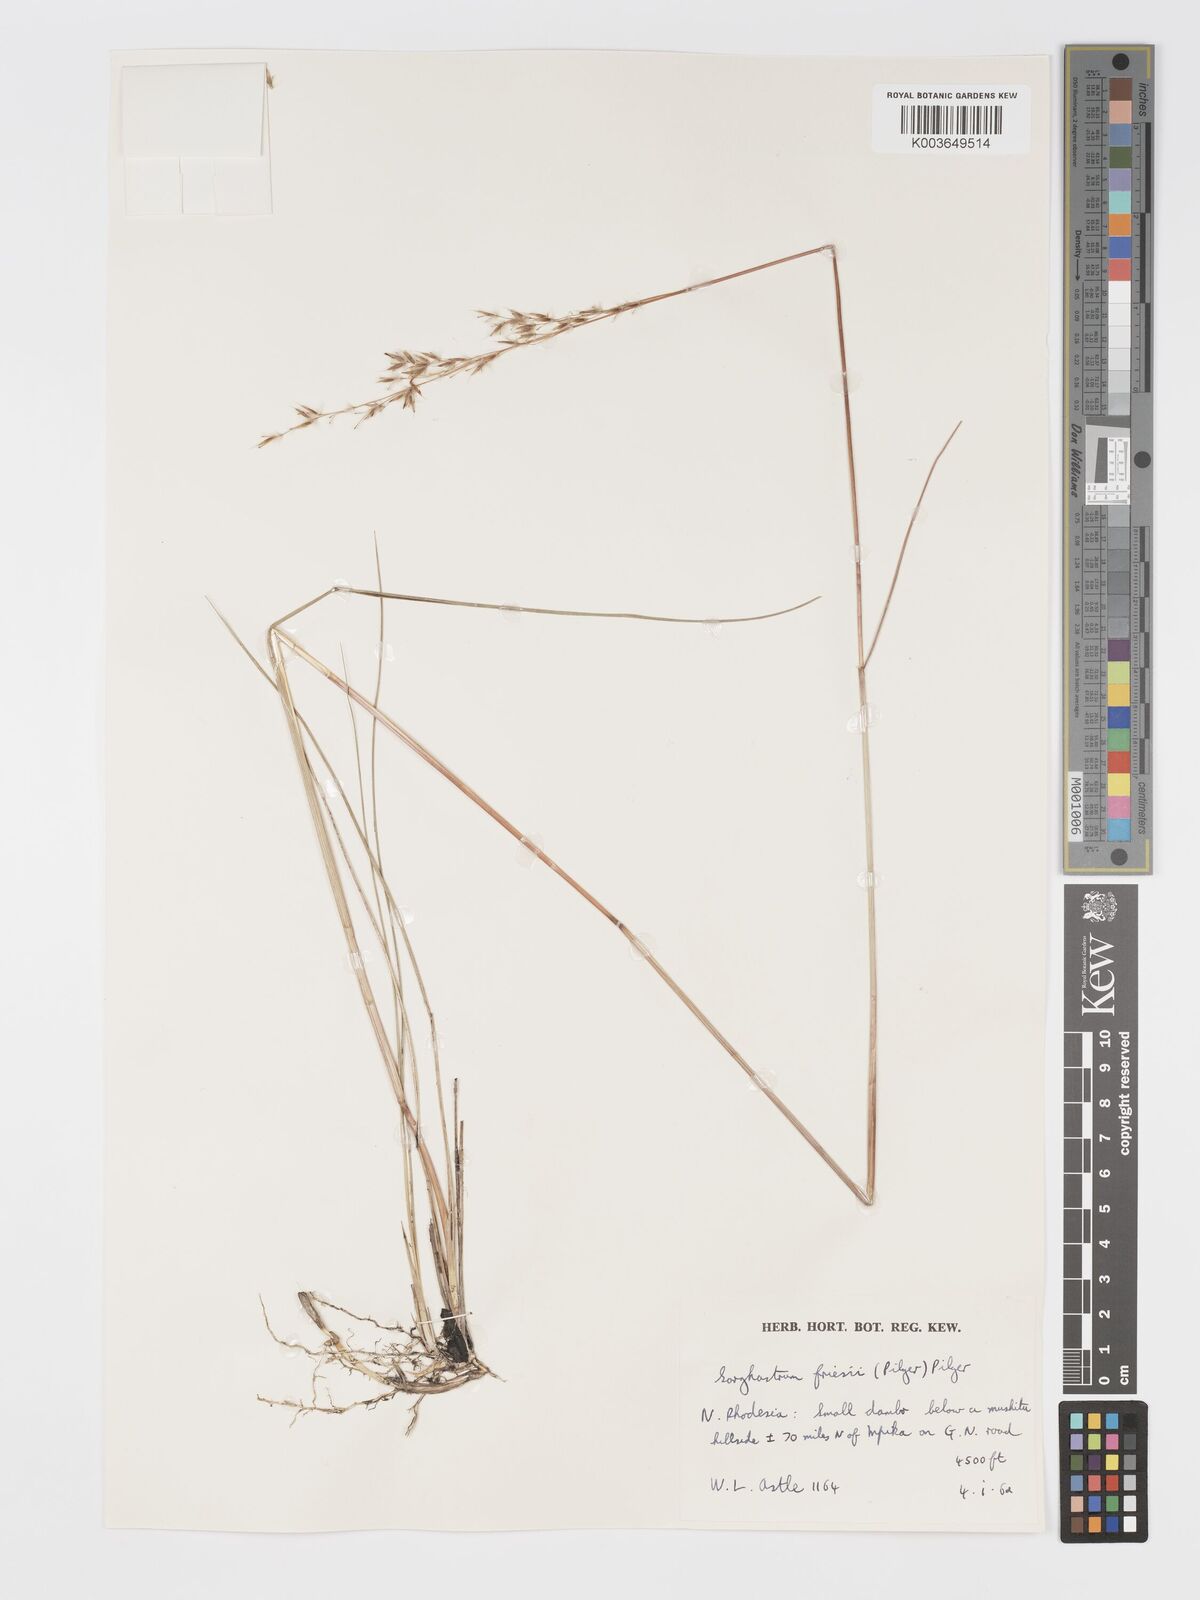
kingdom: Plantae
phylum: Tracheophyta
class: Liliopsida
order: Poales
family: Poaceae
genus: Sorghastrum
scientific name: Sorghastrum nudipes
